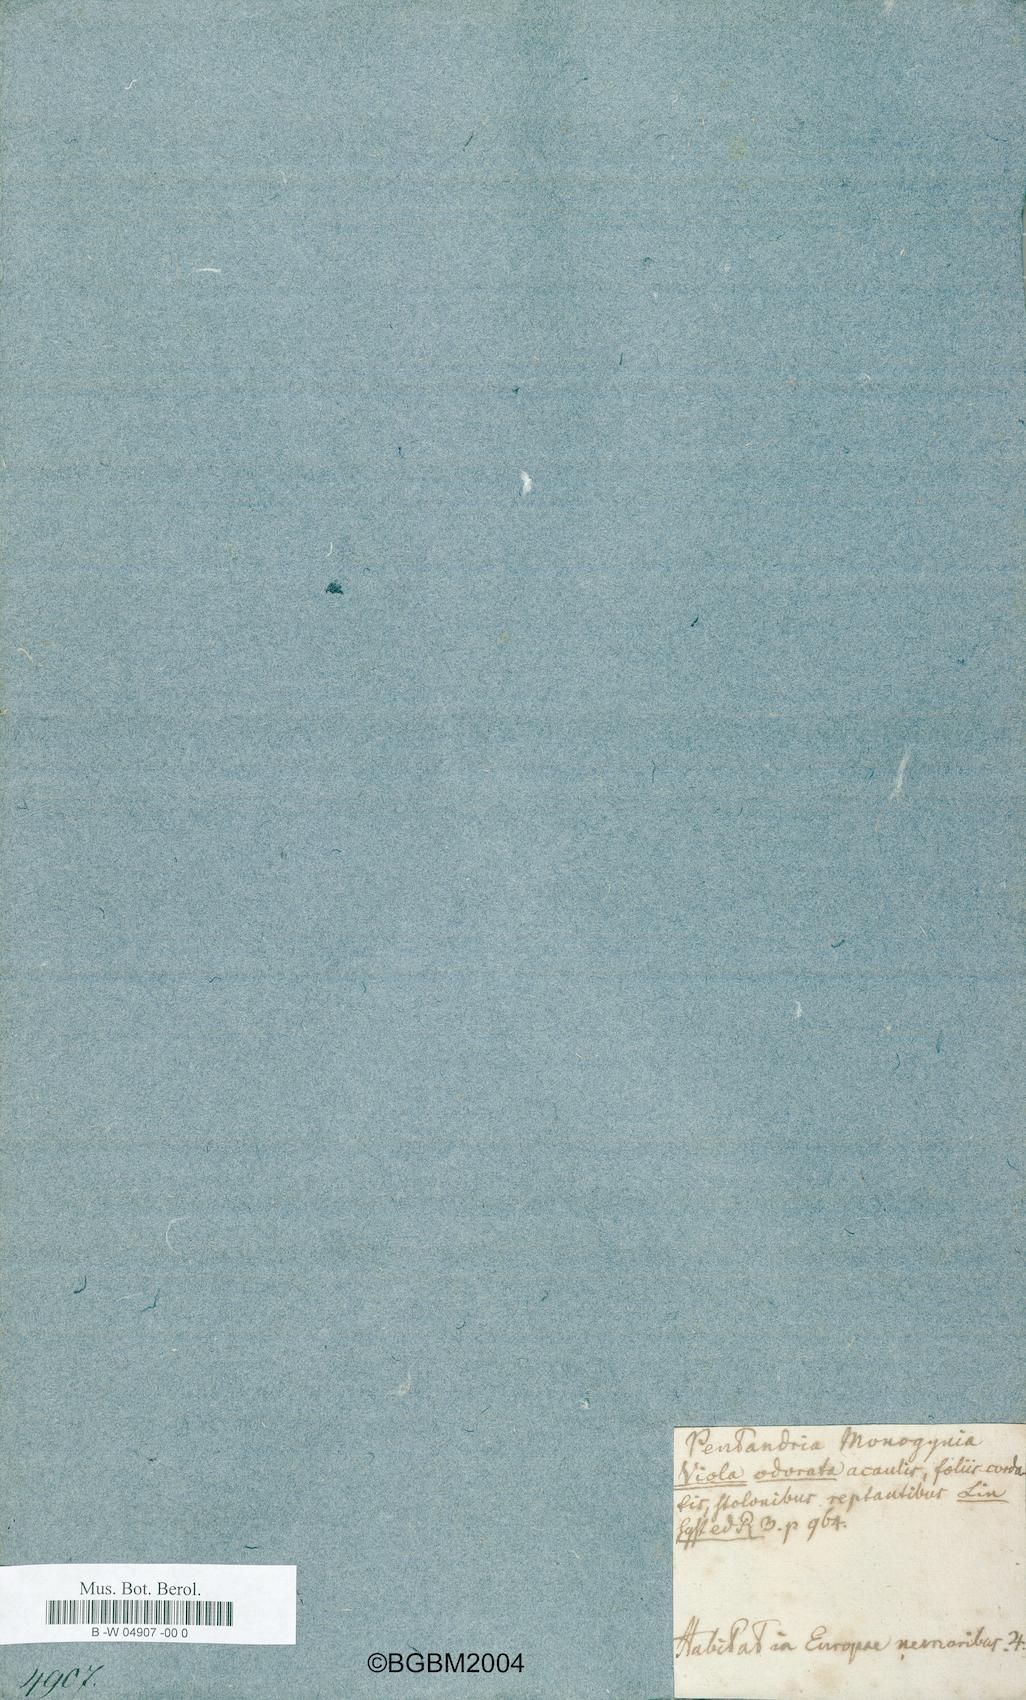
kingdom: Plantae
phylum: Tracheophyta
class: Magnoliopsida
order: Malpighiales
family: Violaceae
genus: Viola
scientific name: Viola odorata
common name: Sweet violet
